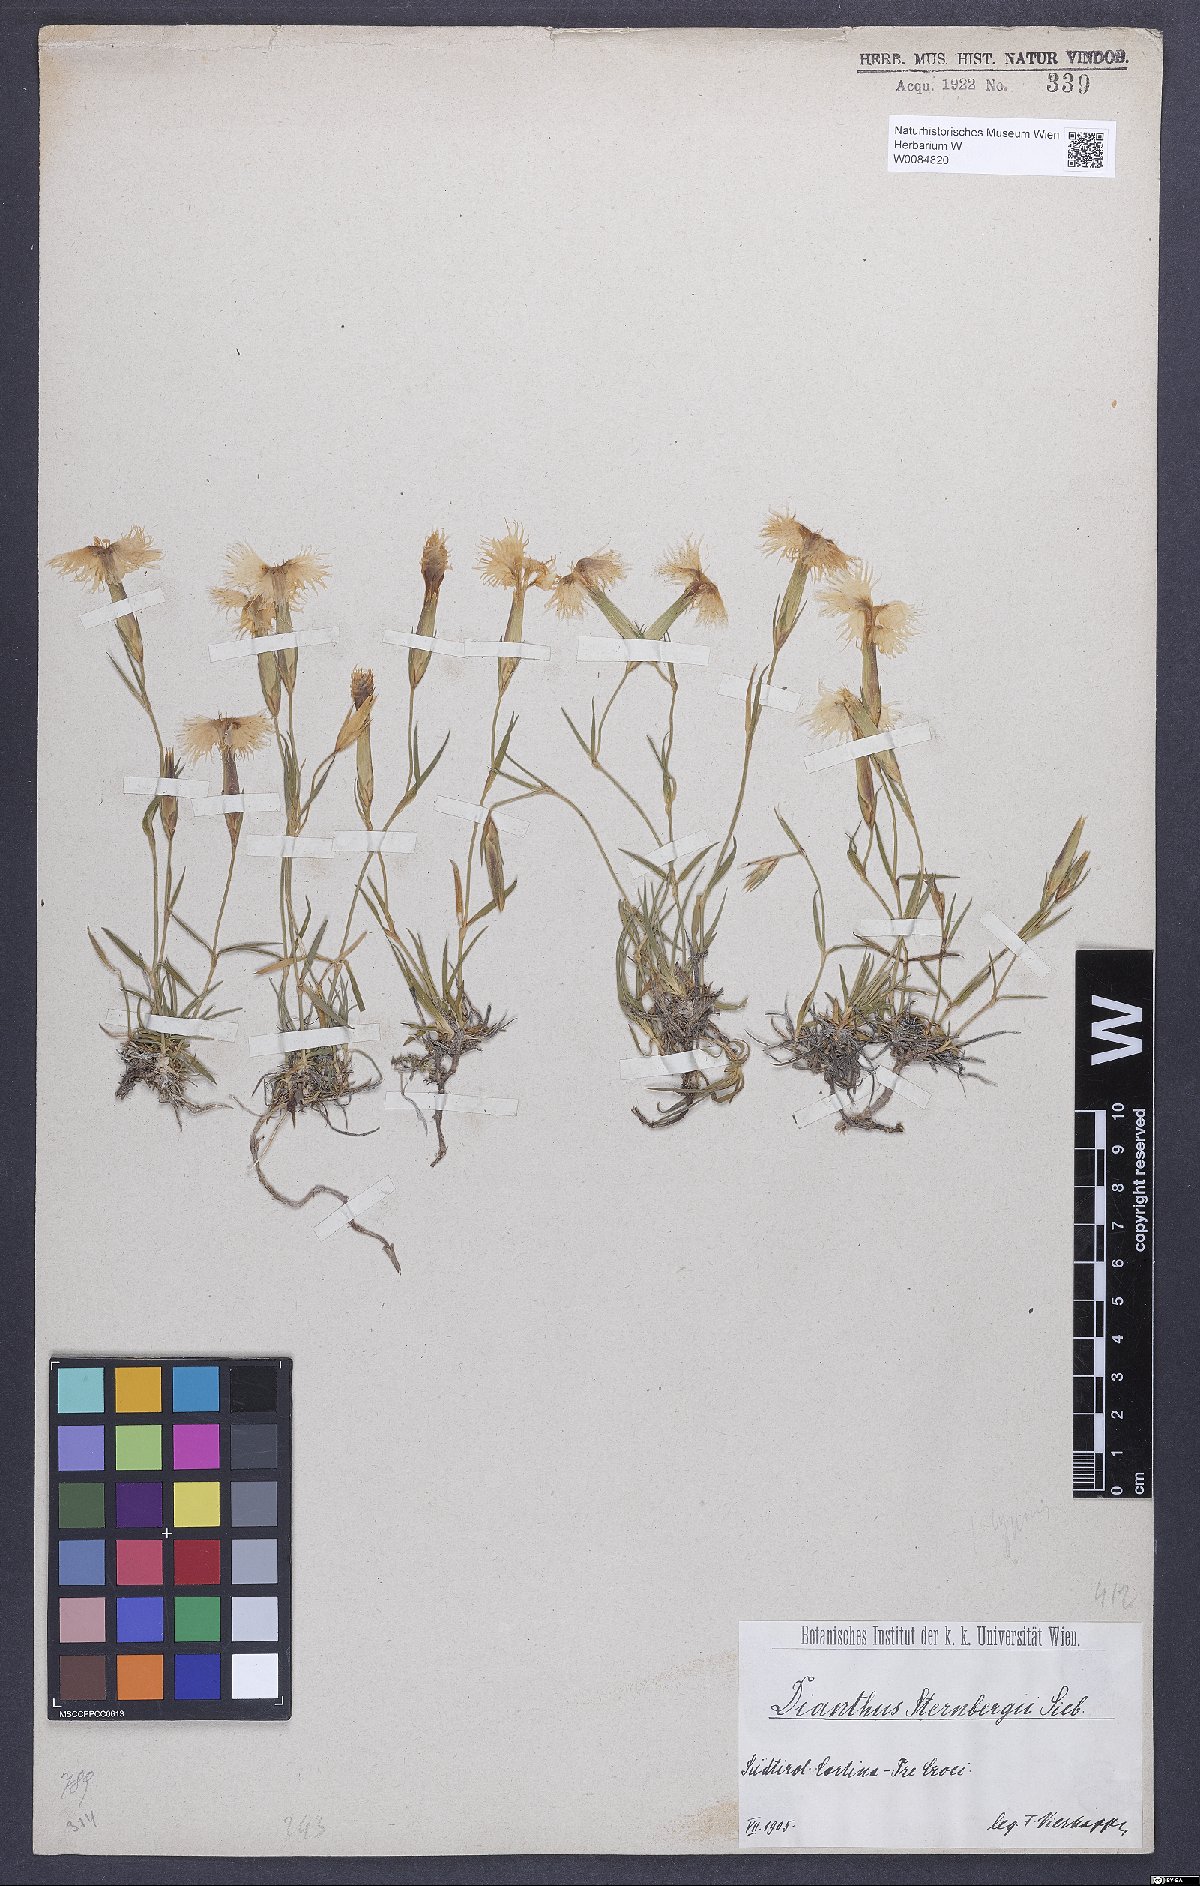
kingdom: Plantae
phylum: Tracheophyta
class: Magnoliopsida
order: Caryophyllales
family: Caryophyllaceae
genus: Dianthus
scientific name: Dianthus monspessulanus
